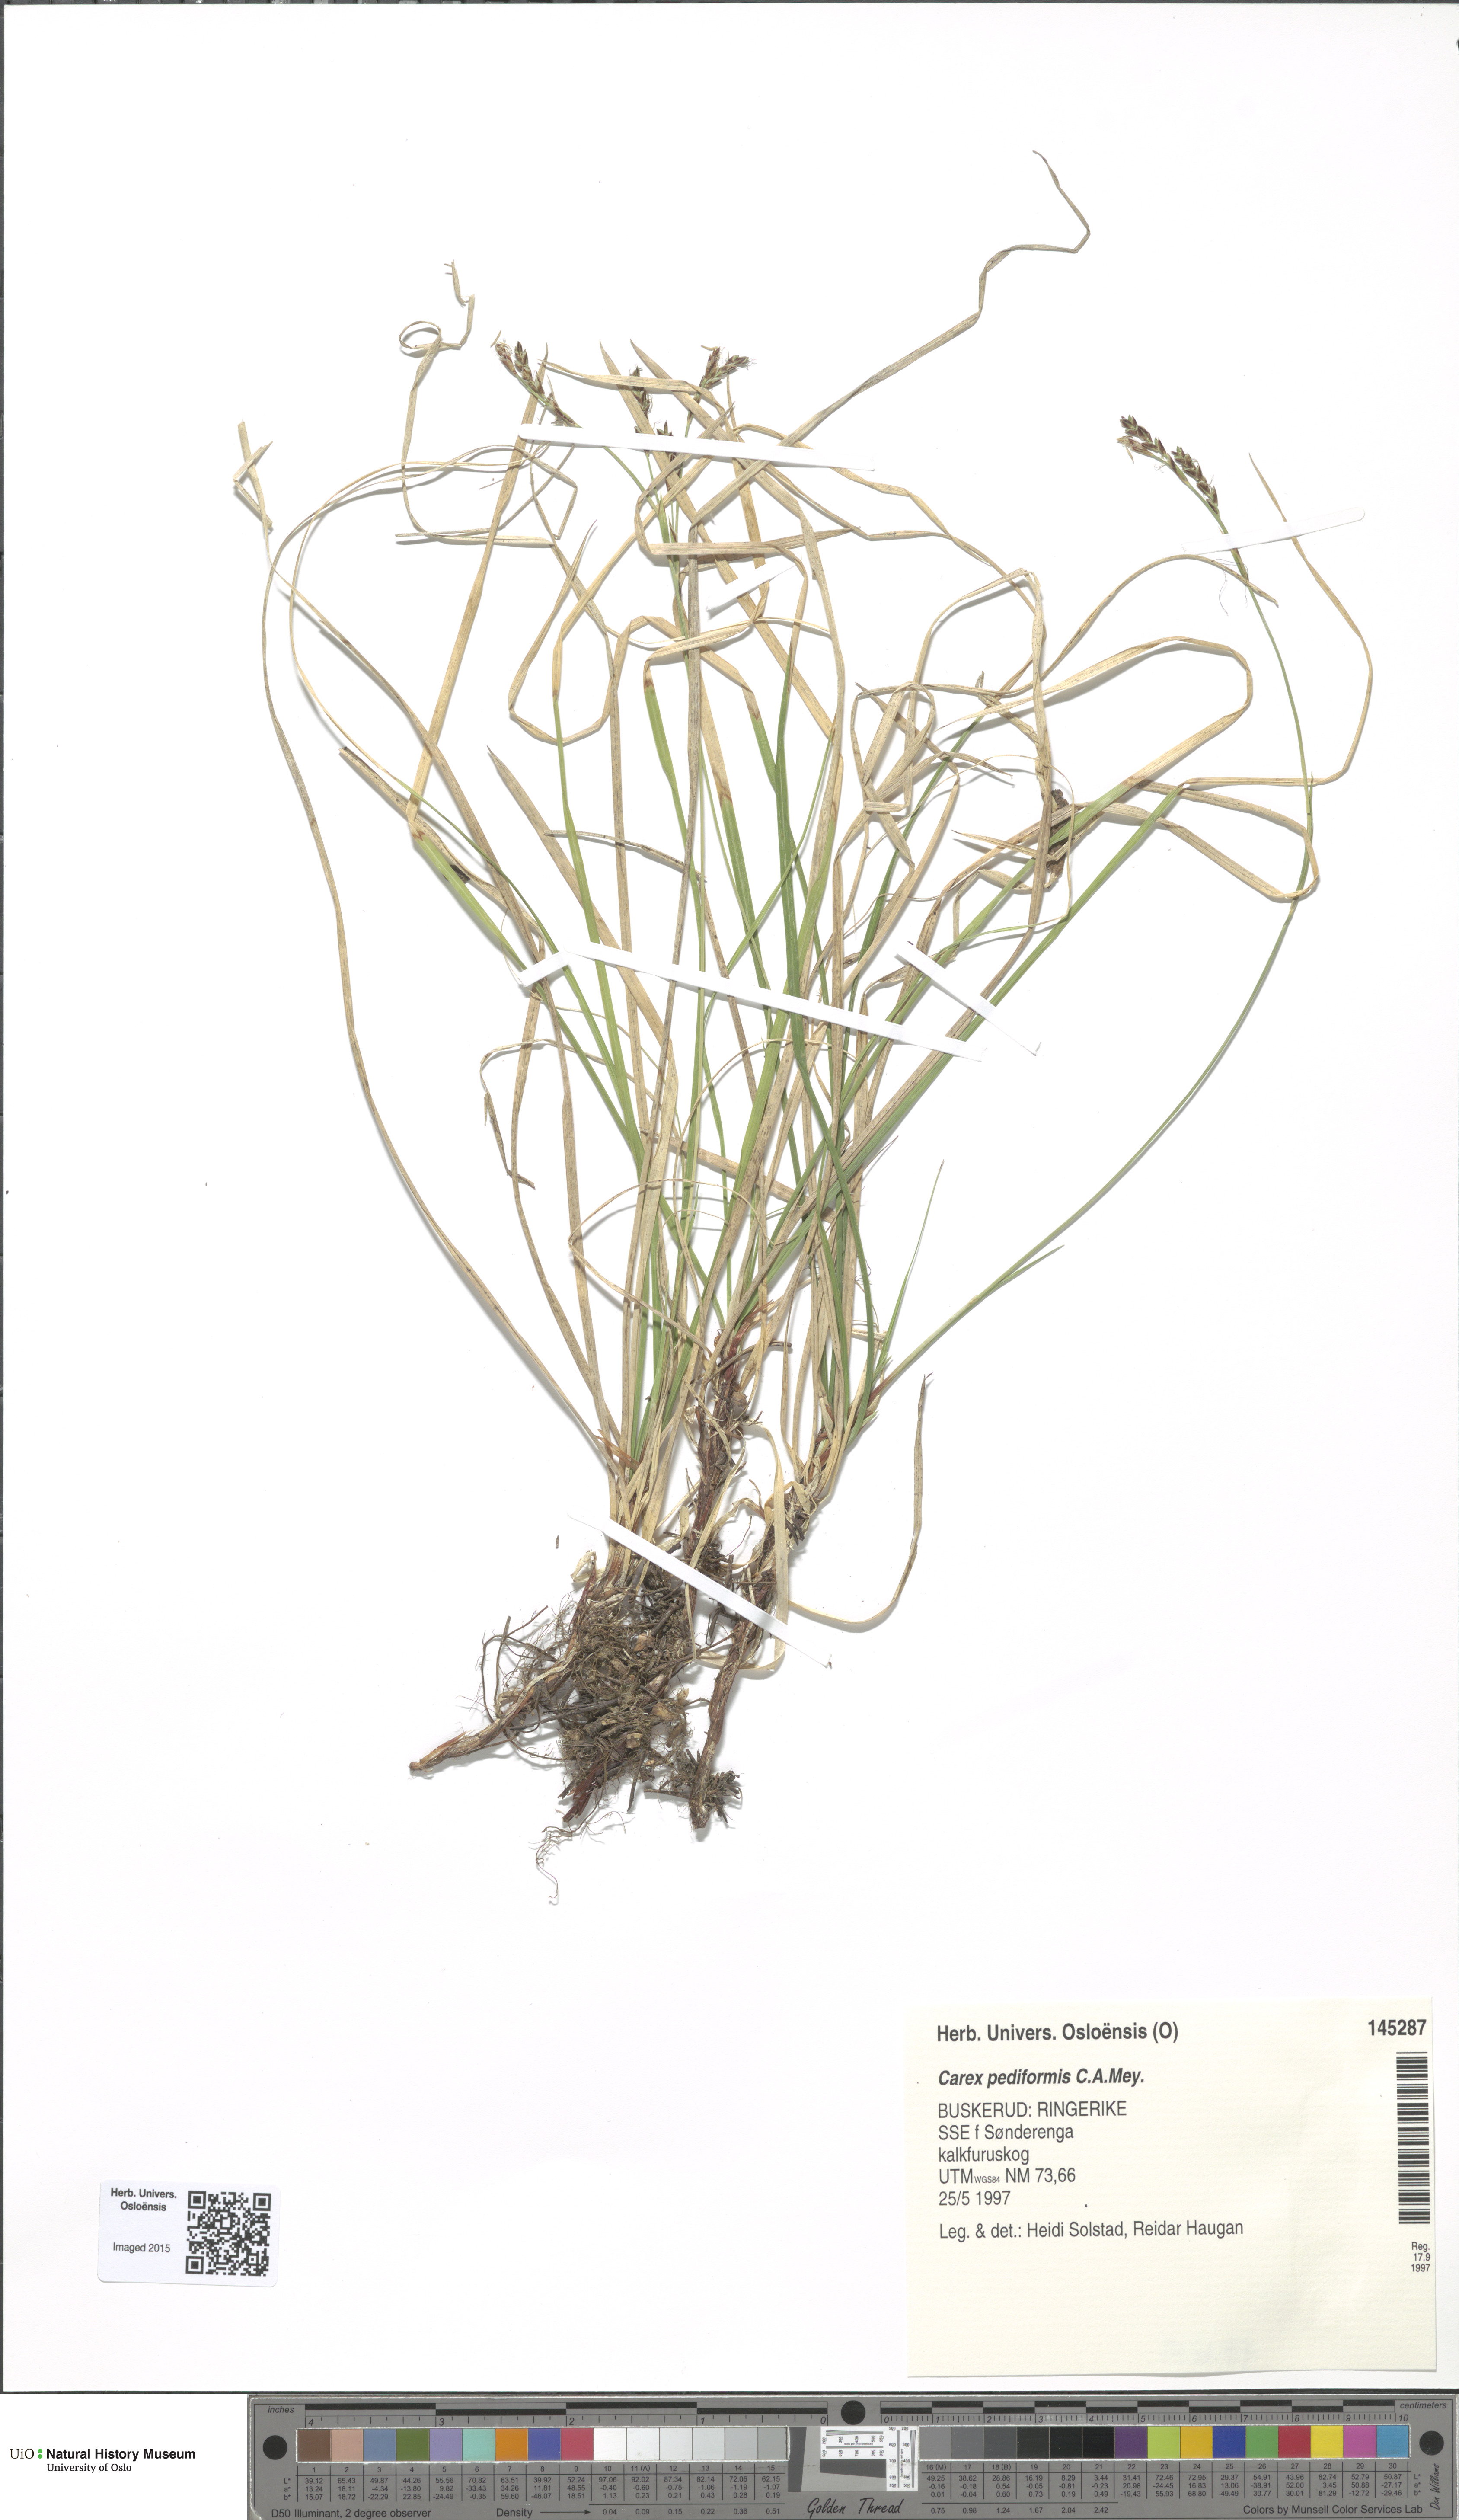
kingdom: Plantae
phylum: Tracheophyta
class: Liliopsida
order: Poales
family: Cyperaceae
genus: Carex
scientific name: Carex rhizina
